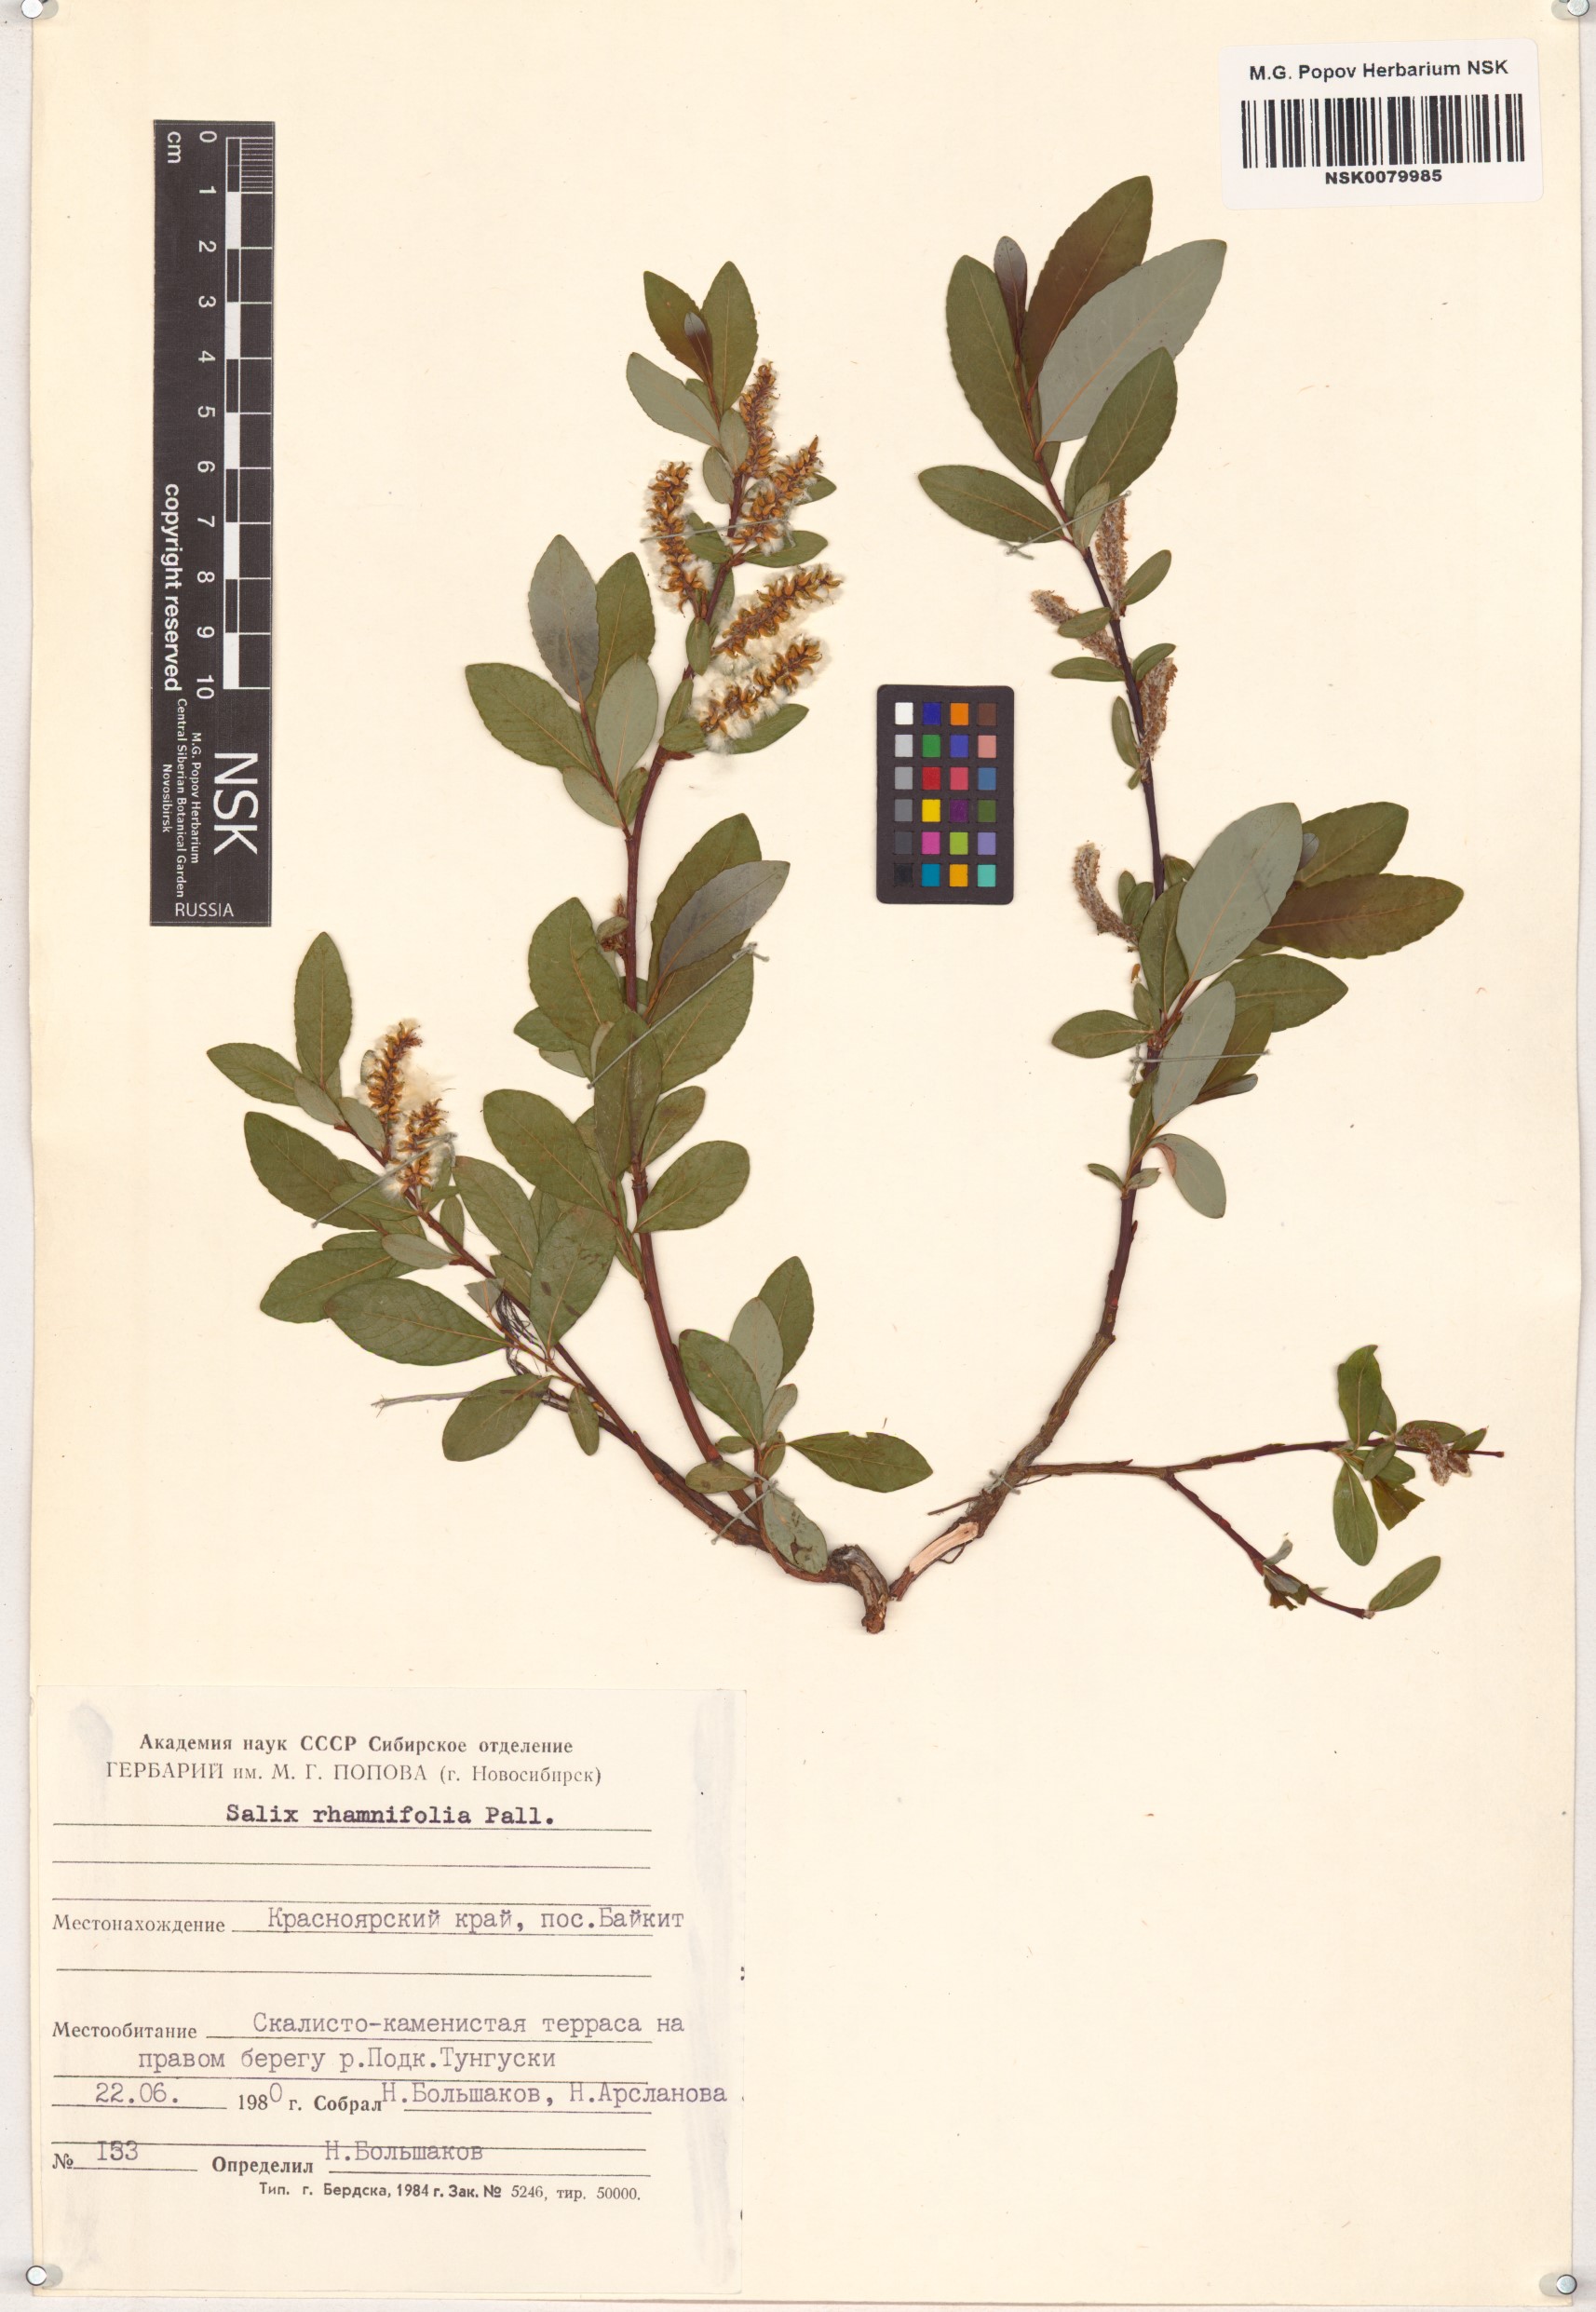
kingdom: Plantae
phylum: Tracheophyta
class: Magnoliopsida
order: Malpighiales
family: Salicaceae
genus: Salix
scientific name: Salix rhamnifolia
